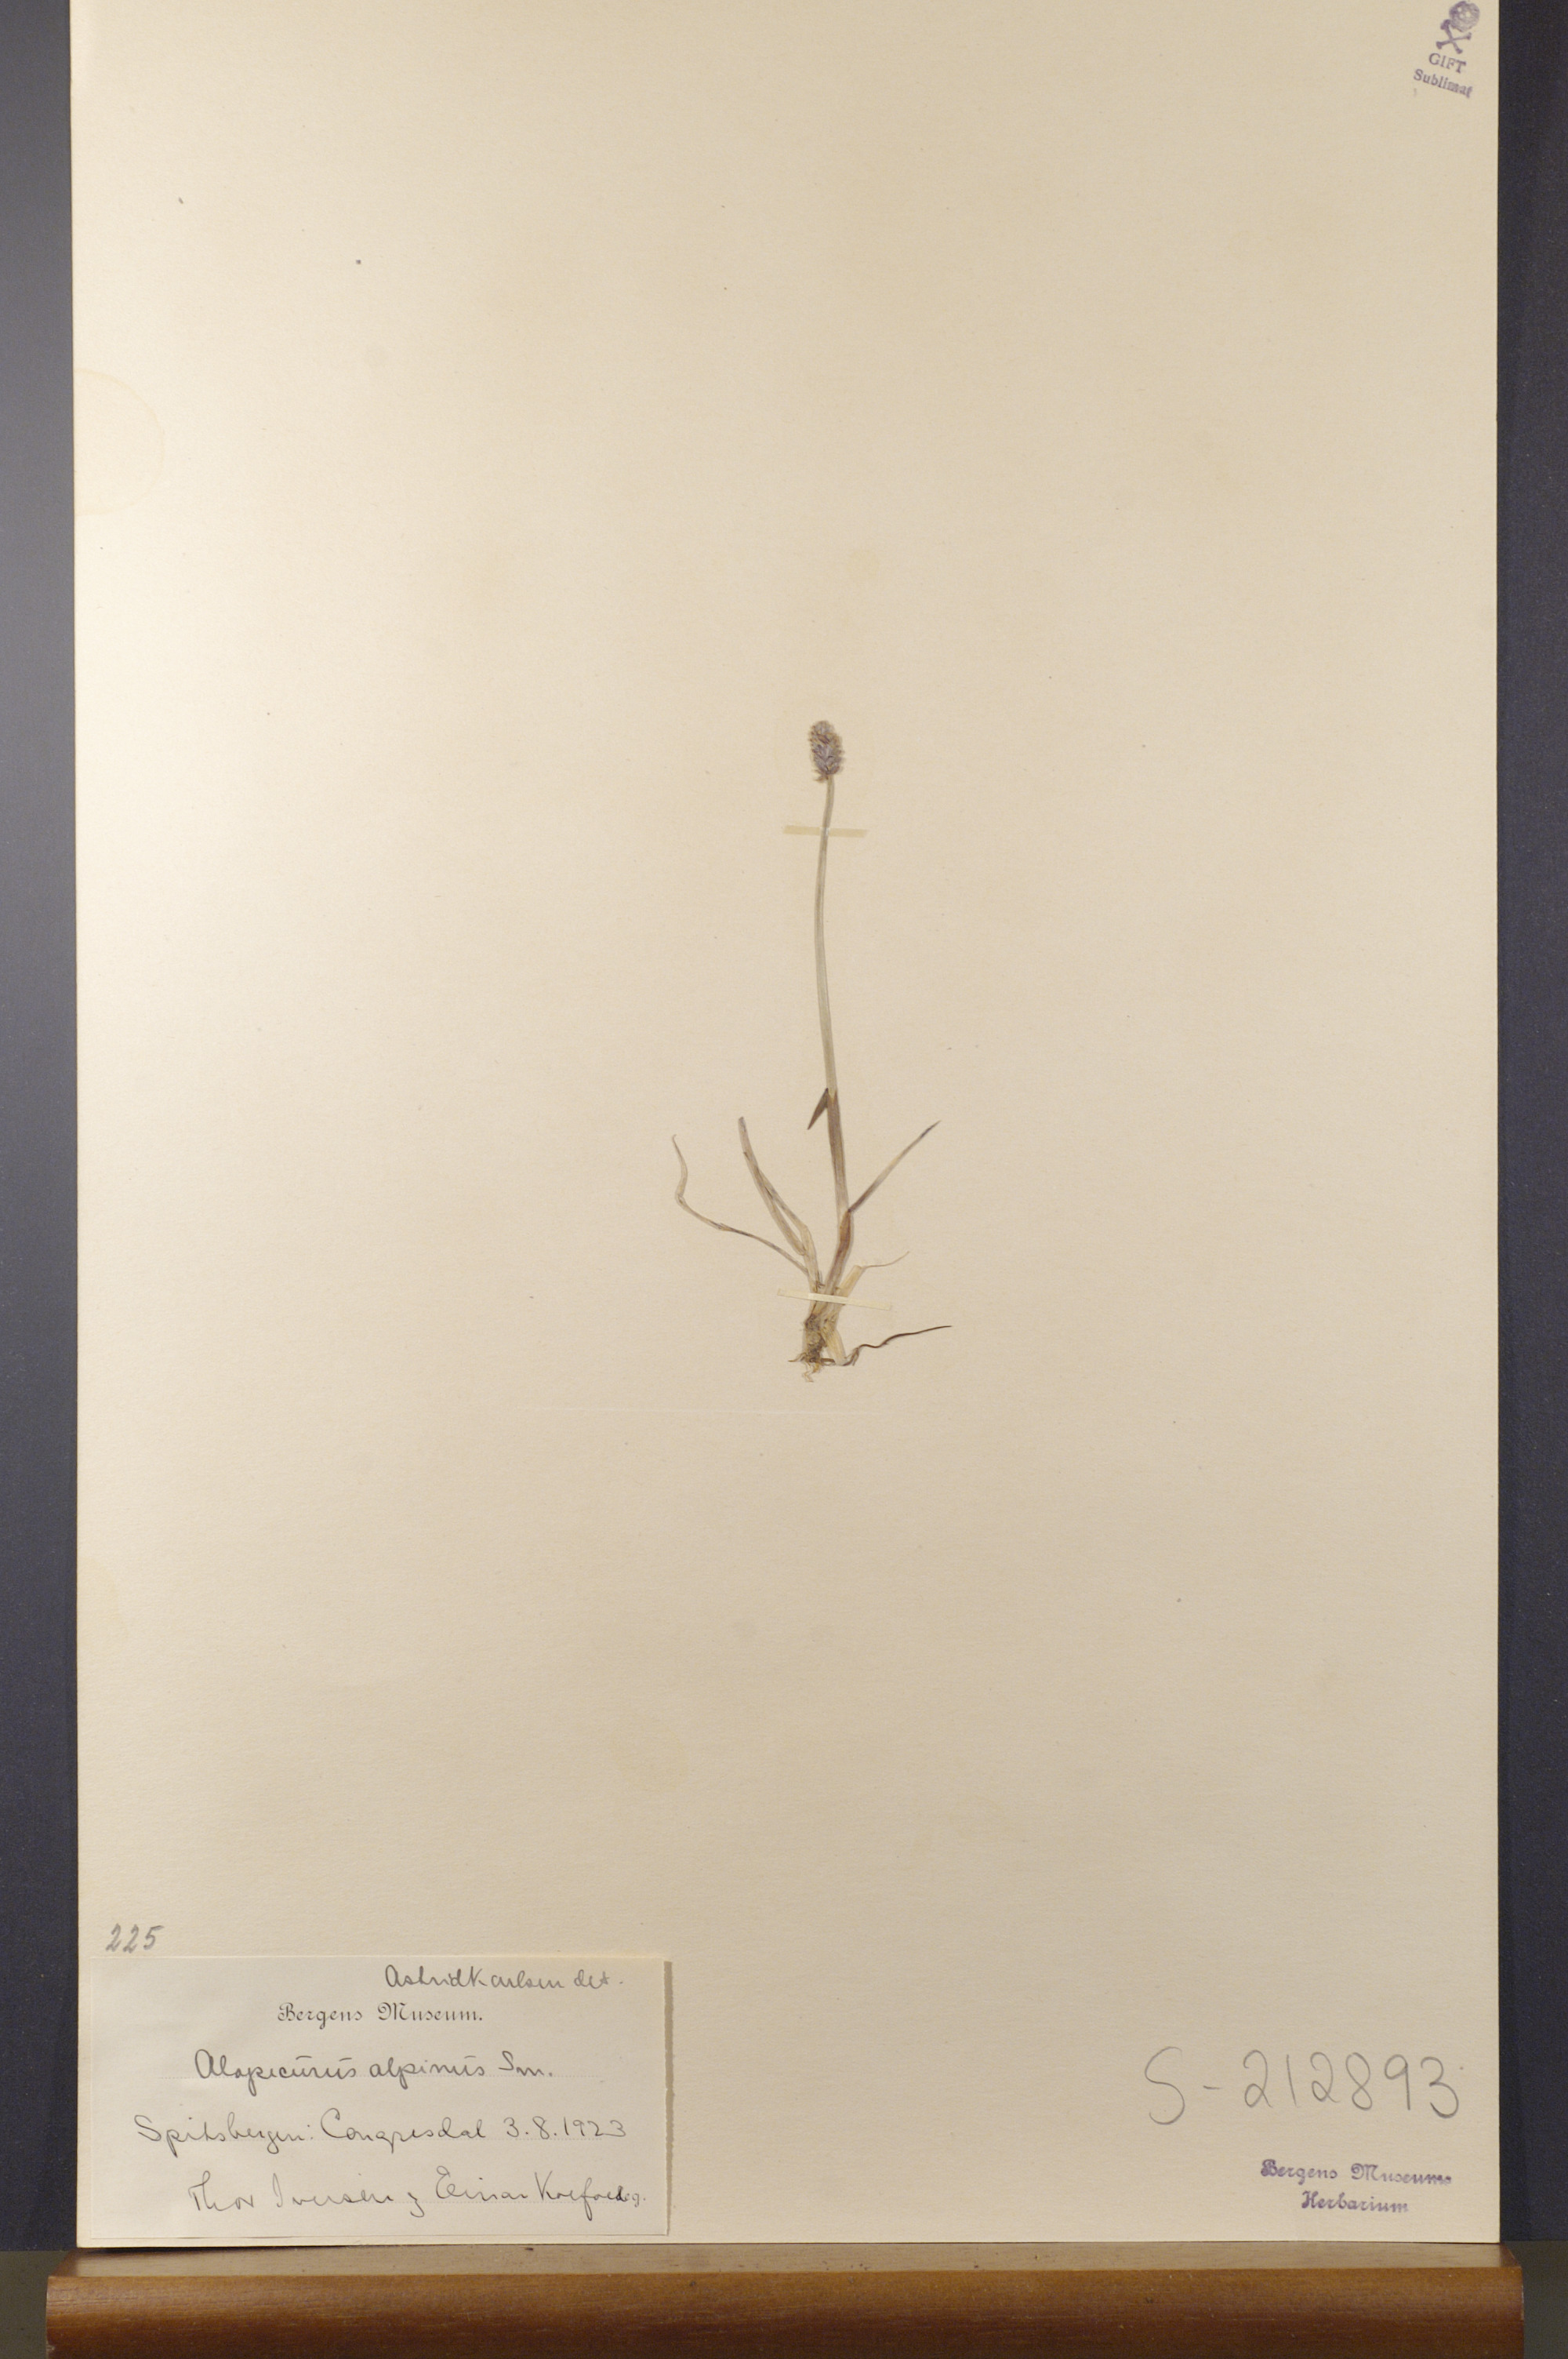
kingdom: Plantae
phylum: Tracheophyta
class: Liliopsida
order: Poales
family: Poaceae
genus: Alopecurus
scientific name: Alopecurus magellanicus
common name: Alpine foxtail
